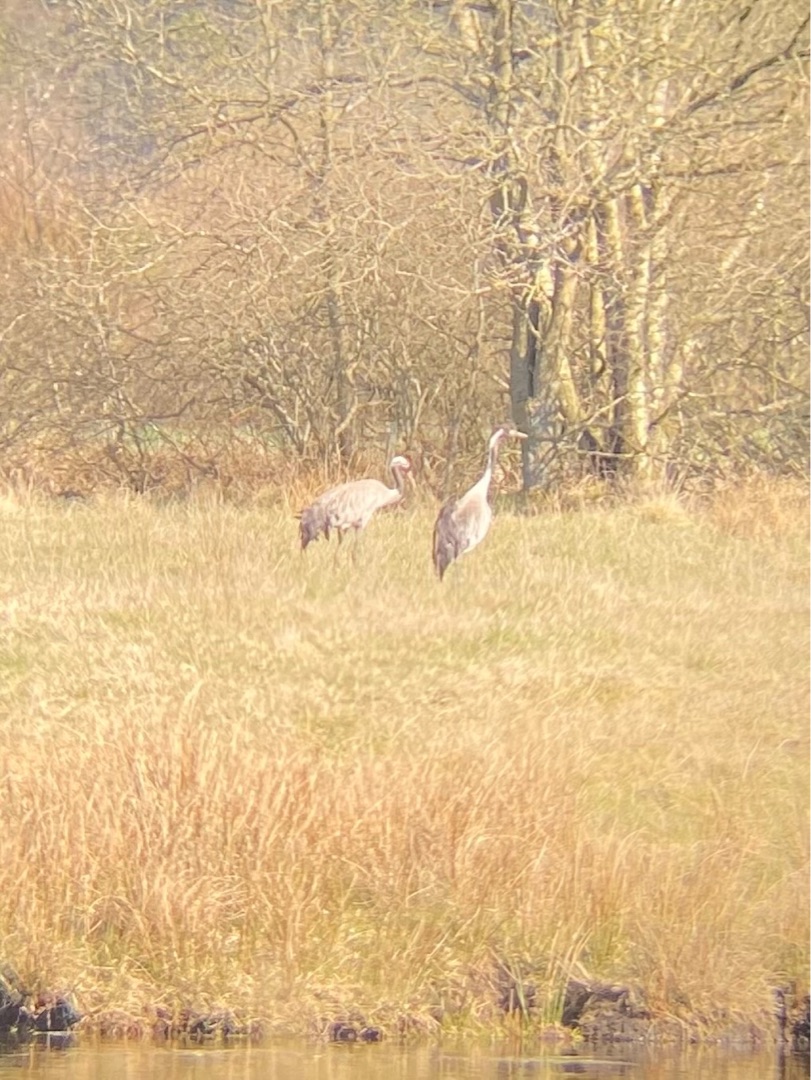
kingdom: Animalia
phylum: Chordata
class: Aves
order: Gruiformes
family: Gruidae
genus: Grus
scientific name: Grus grus
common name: Trane
